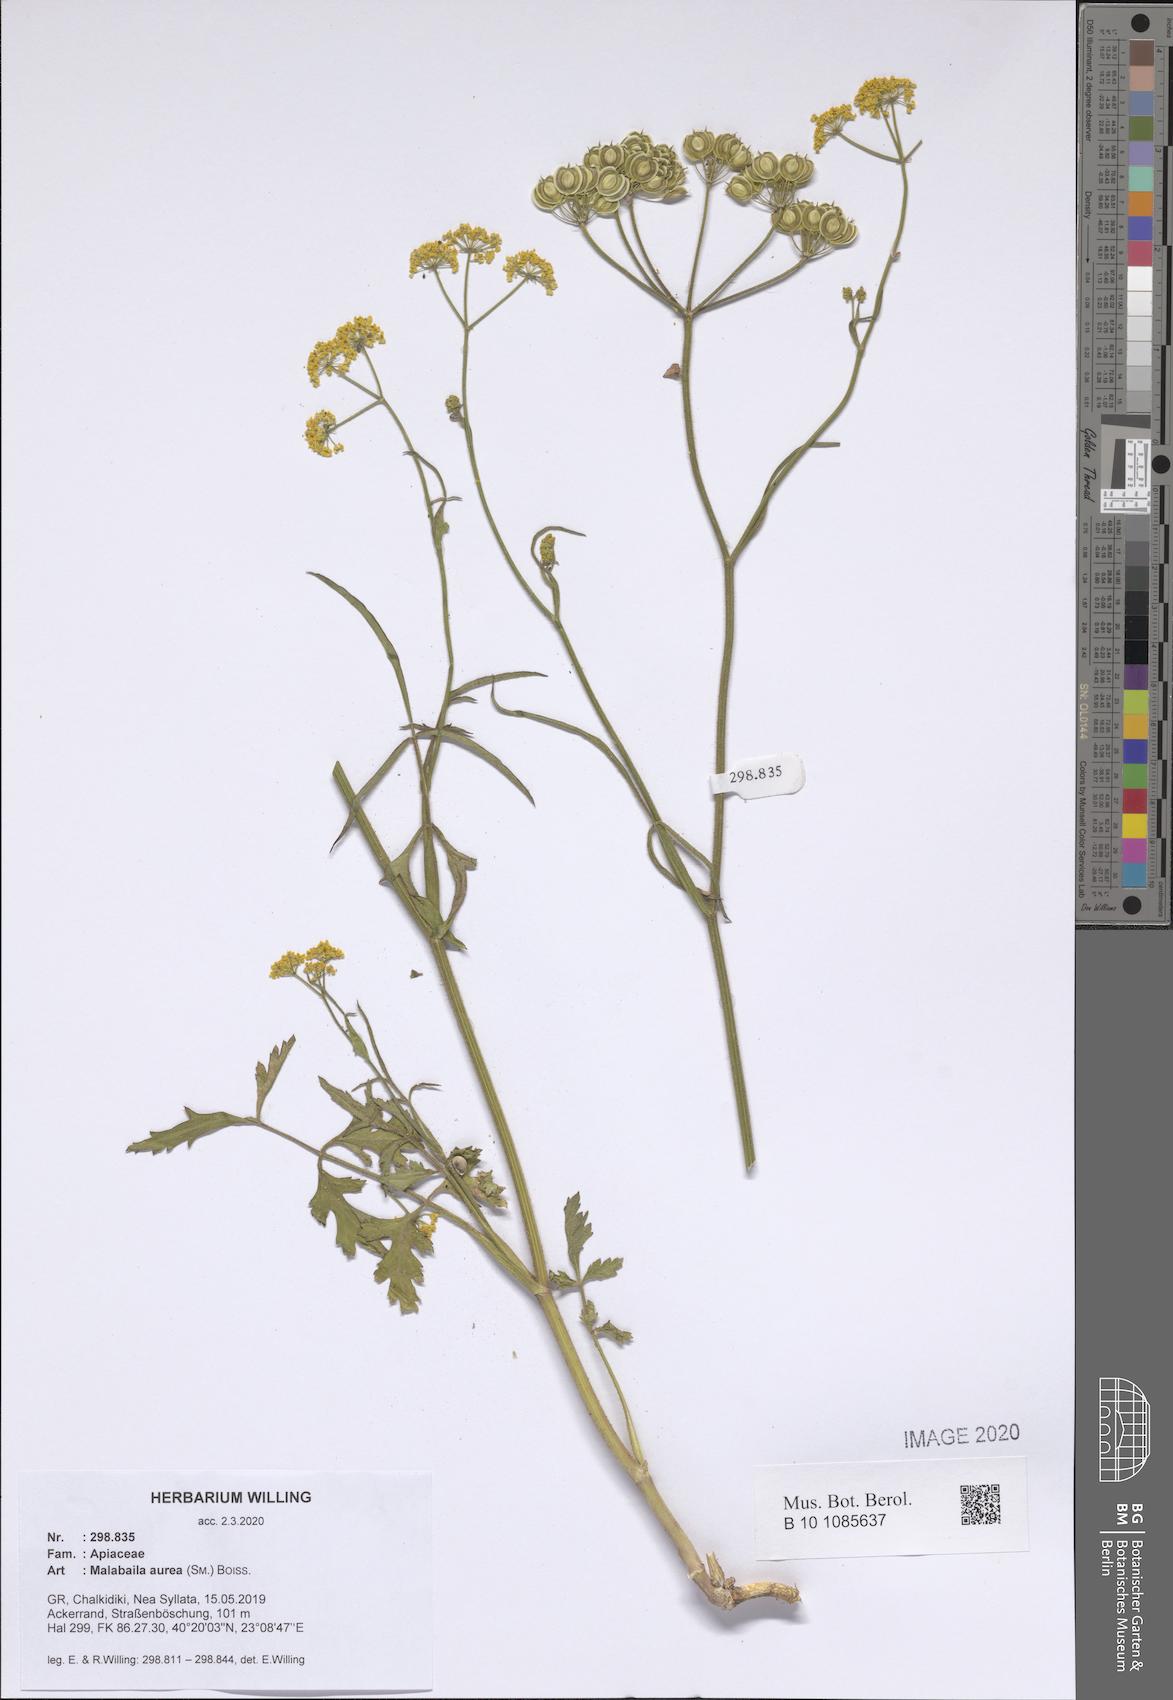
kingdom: Plantae
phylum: Tracheophyta
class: Magnoliopsida
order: Apiales
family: Apiaceae
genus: Leiotulus
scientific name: Leiotulus aureus
